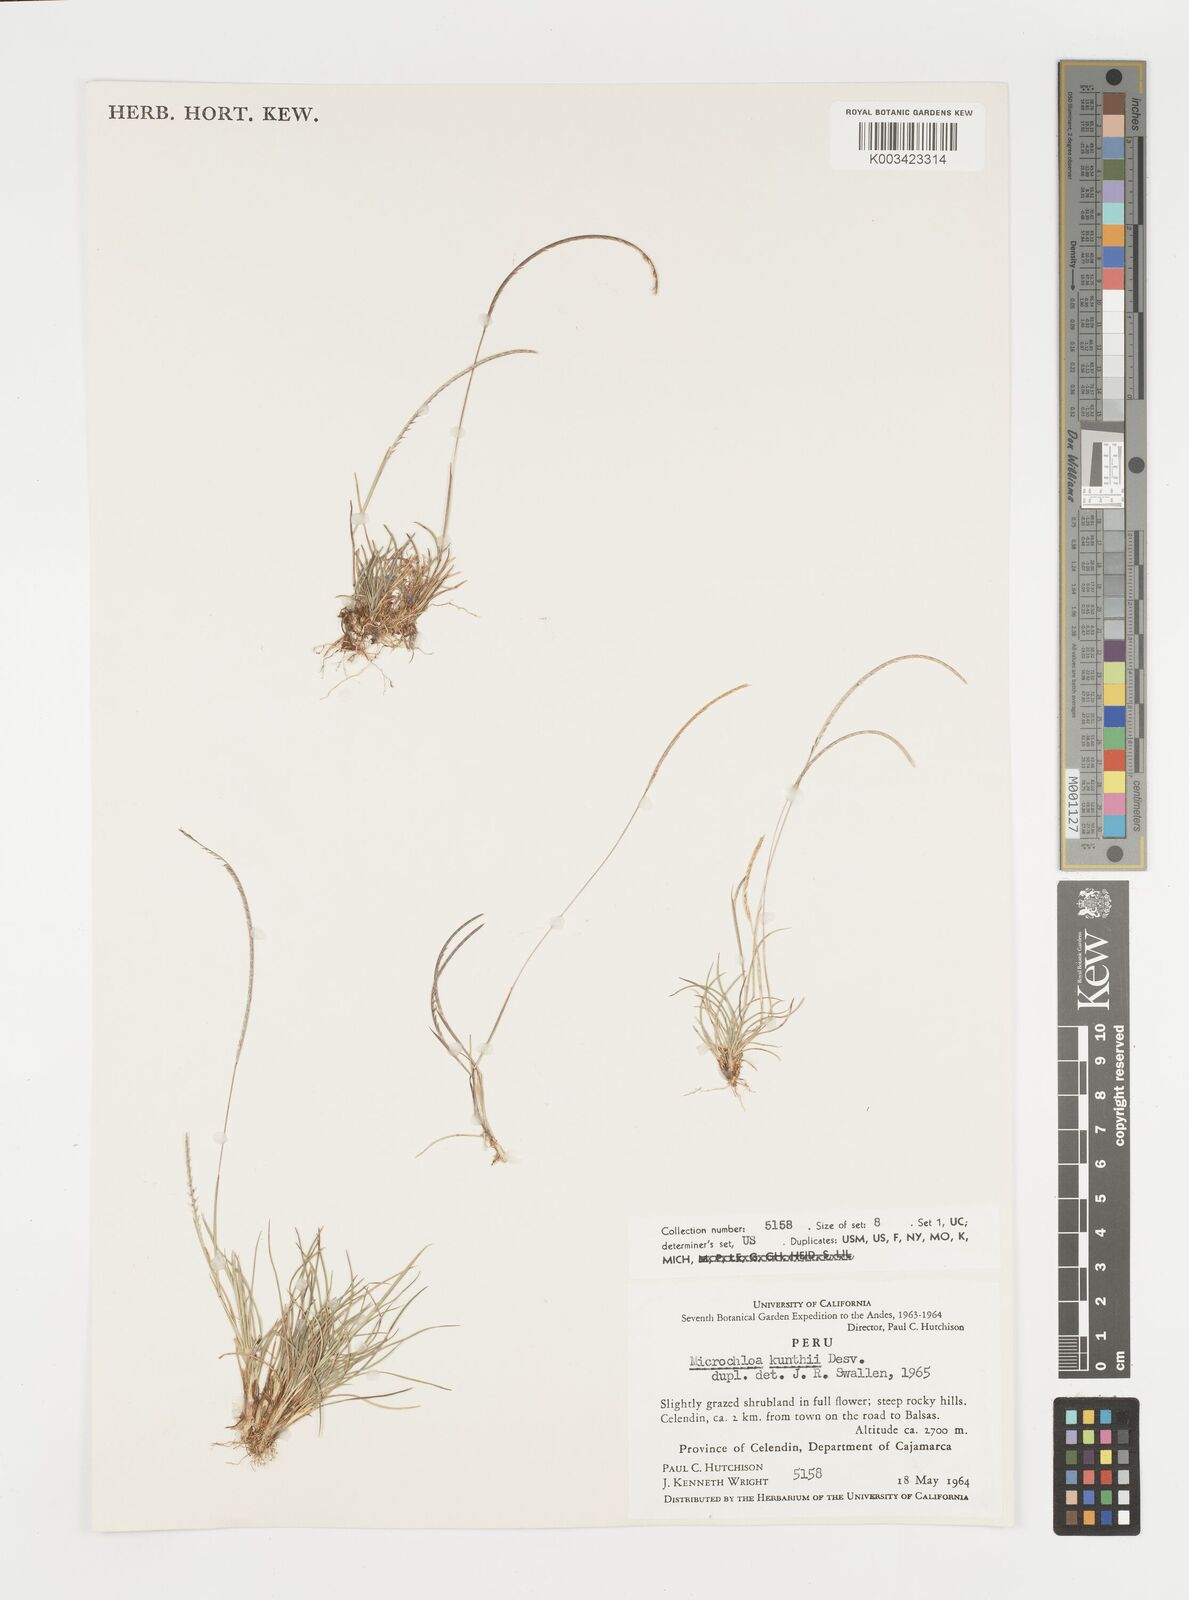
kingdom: Plantae
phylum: Tracheophyta
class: Liliopsida
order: Poales
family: Poaceae
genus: Microchloa
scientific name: Microchloa indica
